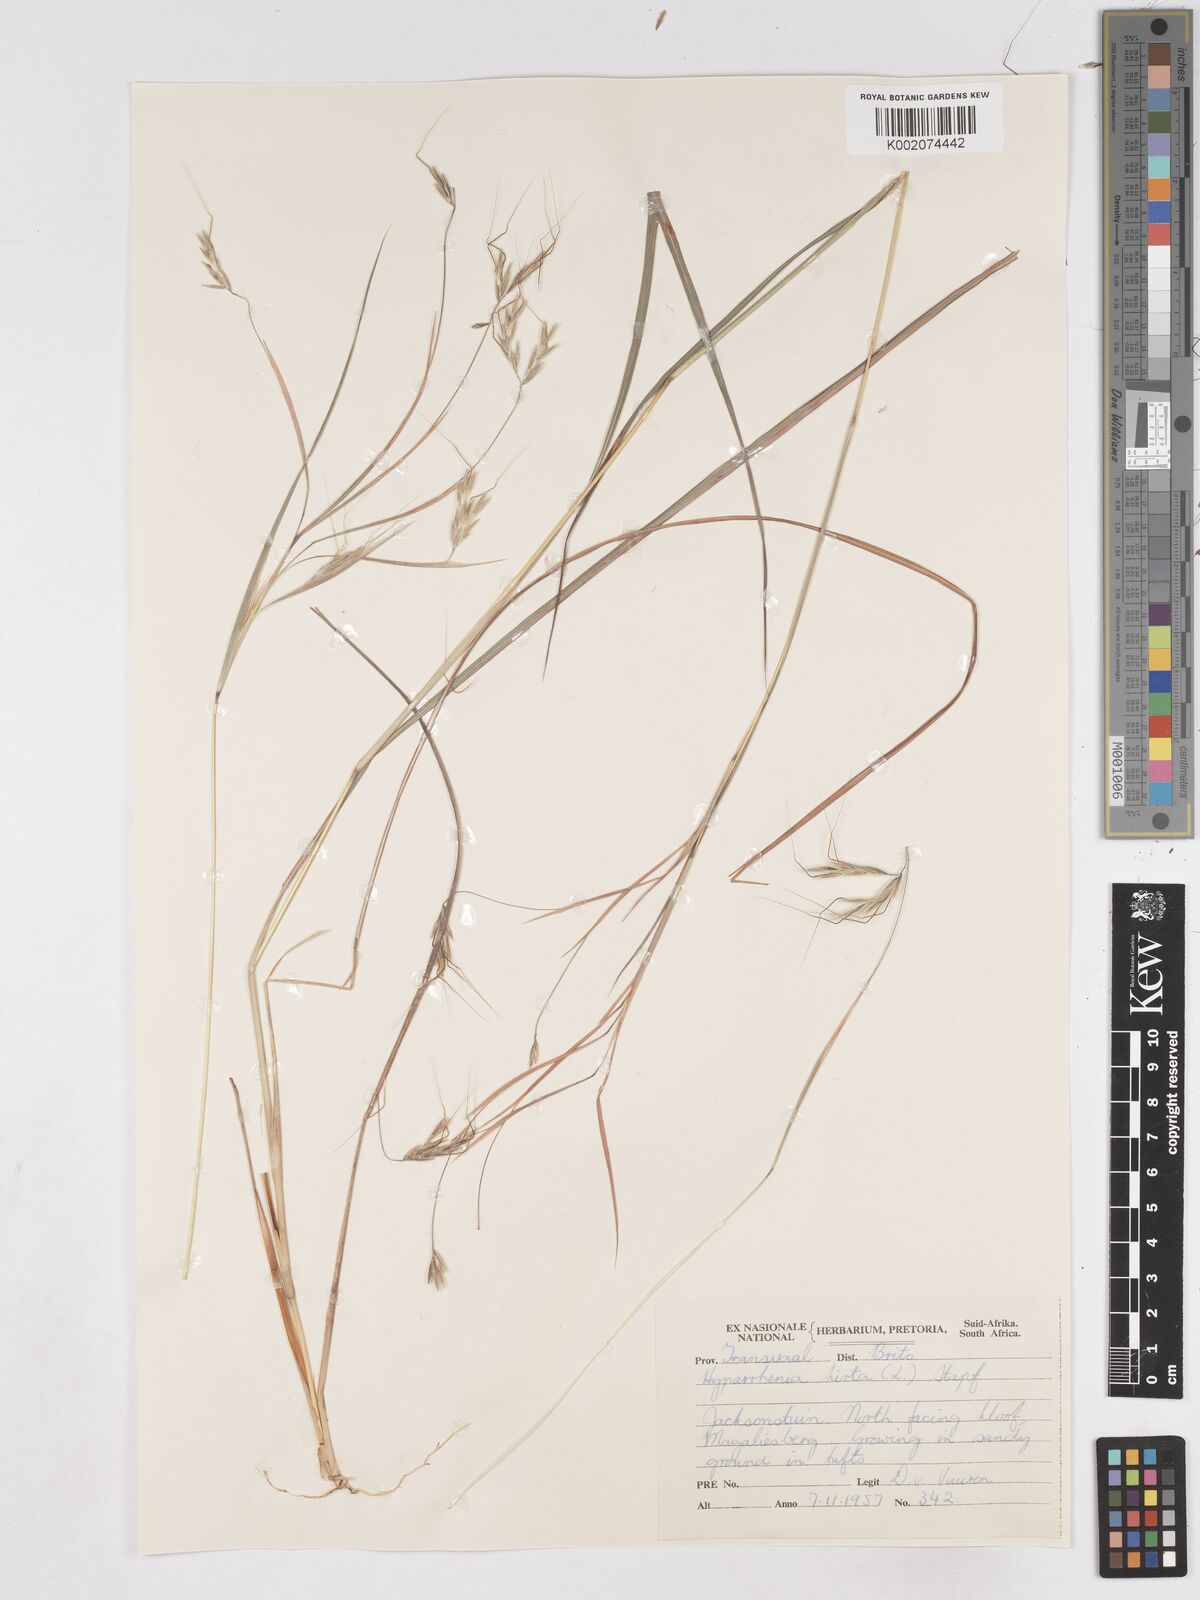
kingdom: Plantae
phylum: Tracheophyta
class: Liliopsida
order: Poales
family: Poaceae
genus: Hyparrhenia
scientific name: Hyparrhenia hirta
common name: Thatching grass
